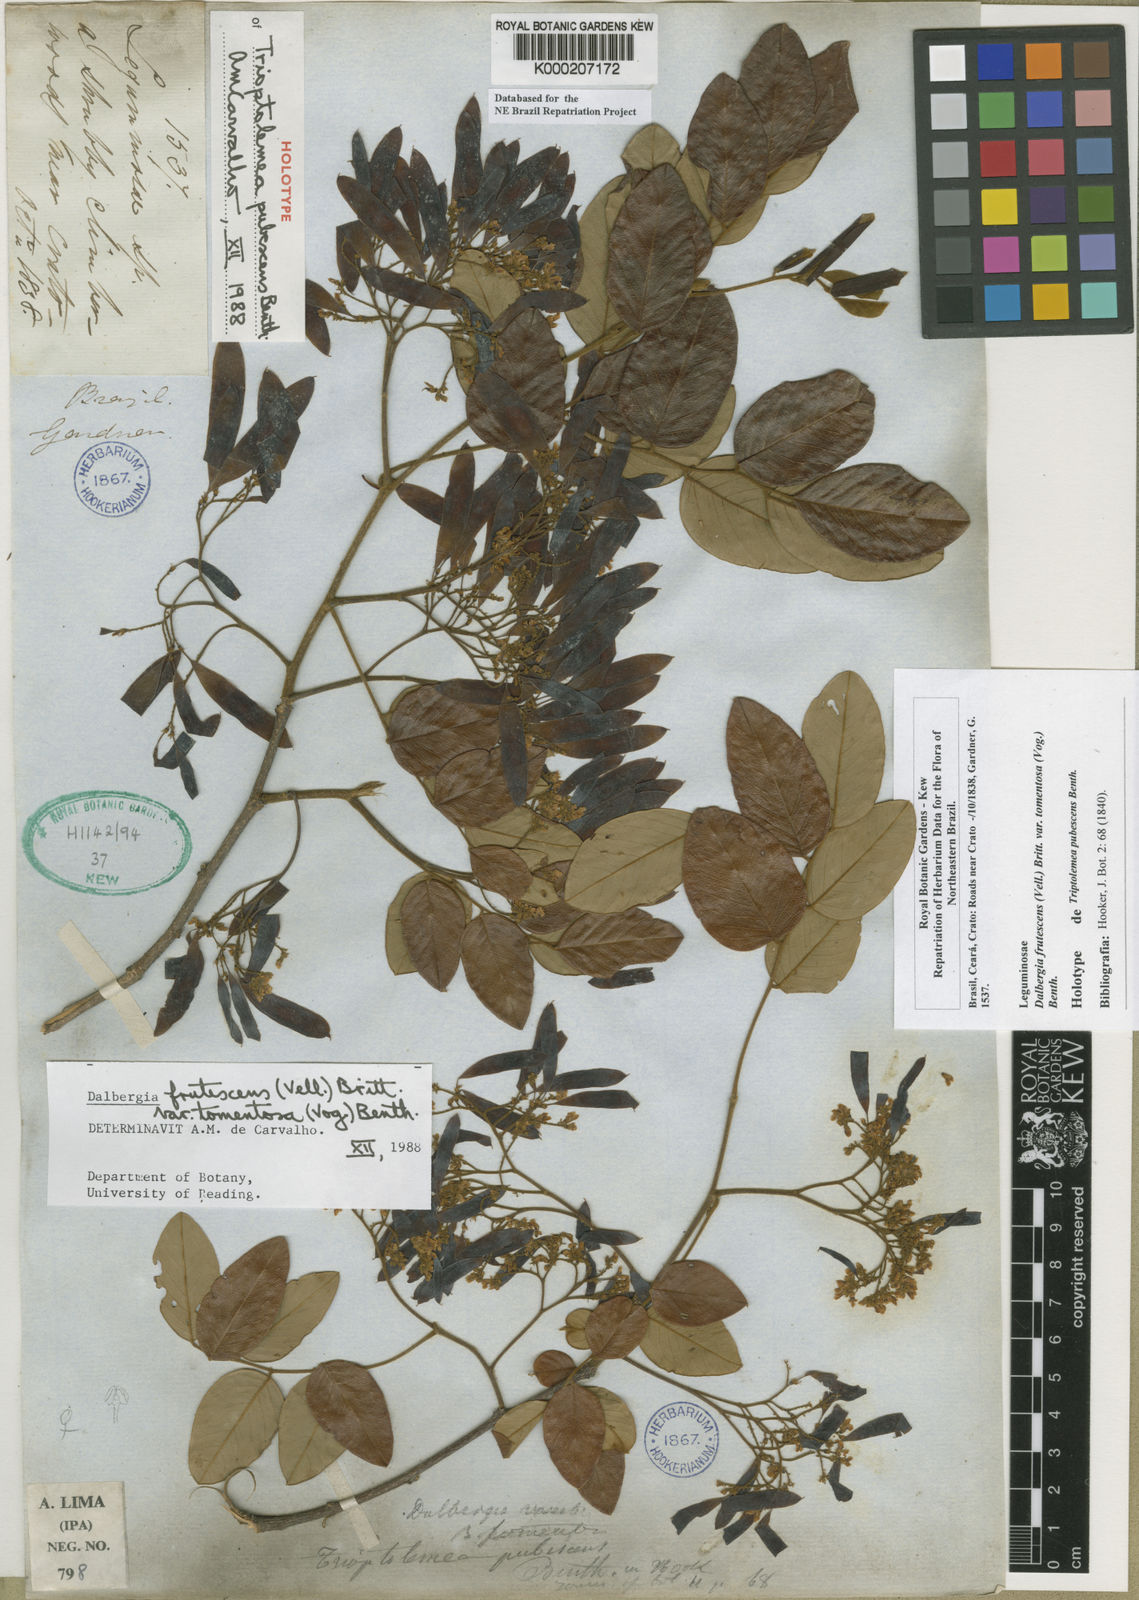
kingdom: Plantae
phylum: Tracheophyta
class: Magnoliopsida
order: Fabales
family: Fabaceae
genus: Dalbergia
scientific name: Dalbergia frutescens
